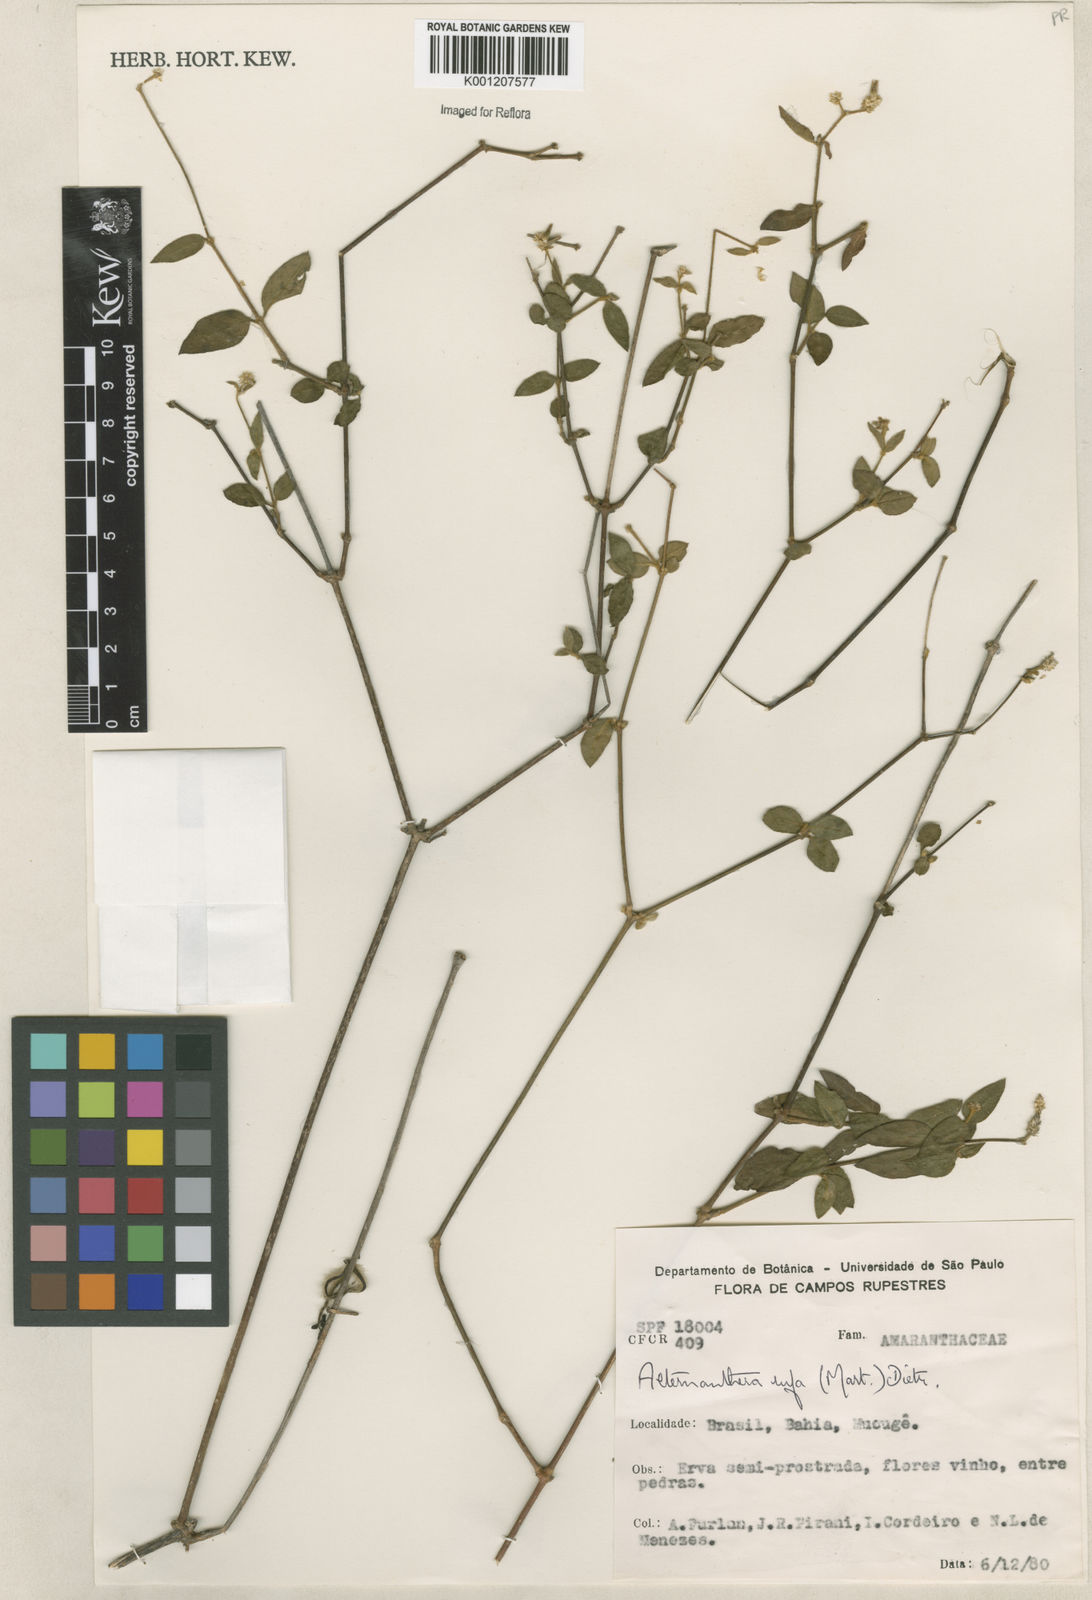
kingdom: Plantae
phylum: Tracheophyta
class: Magnoliopsida
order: Caryophyllales
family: Amaranthaceae
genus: Alternanthera
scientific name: Alternanthera rufa
